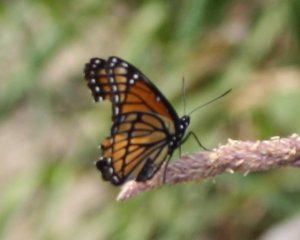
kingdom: Animalia
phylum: Arthropoda
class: Insecta
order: Lepidoptera
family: Nymphalidae
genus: Limenitis
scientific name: Limenitis archippus
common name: Viceroy
